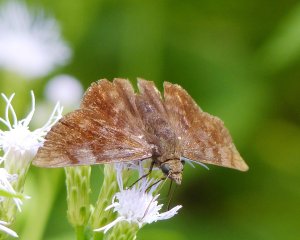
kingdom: Animalia
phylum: Arthropoda
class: Insecta
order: Lepidoptera
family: Hesperiidae
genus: Pellicia
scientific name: Pellicia costimacula
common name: Glazed Pellicia
